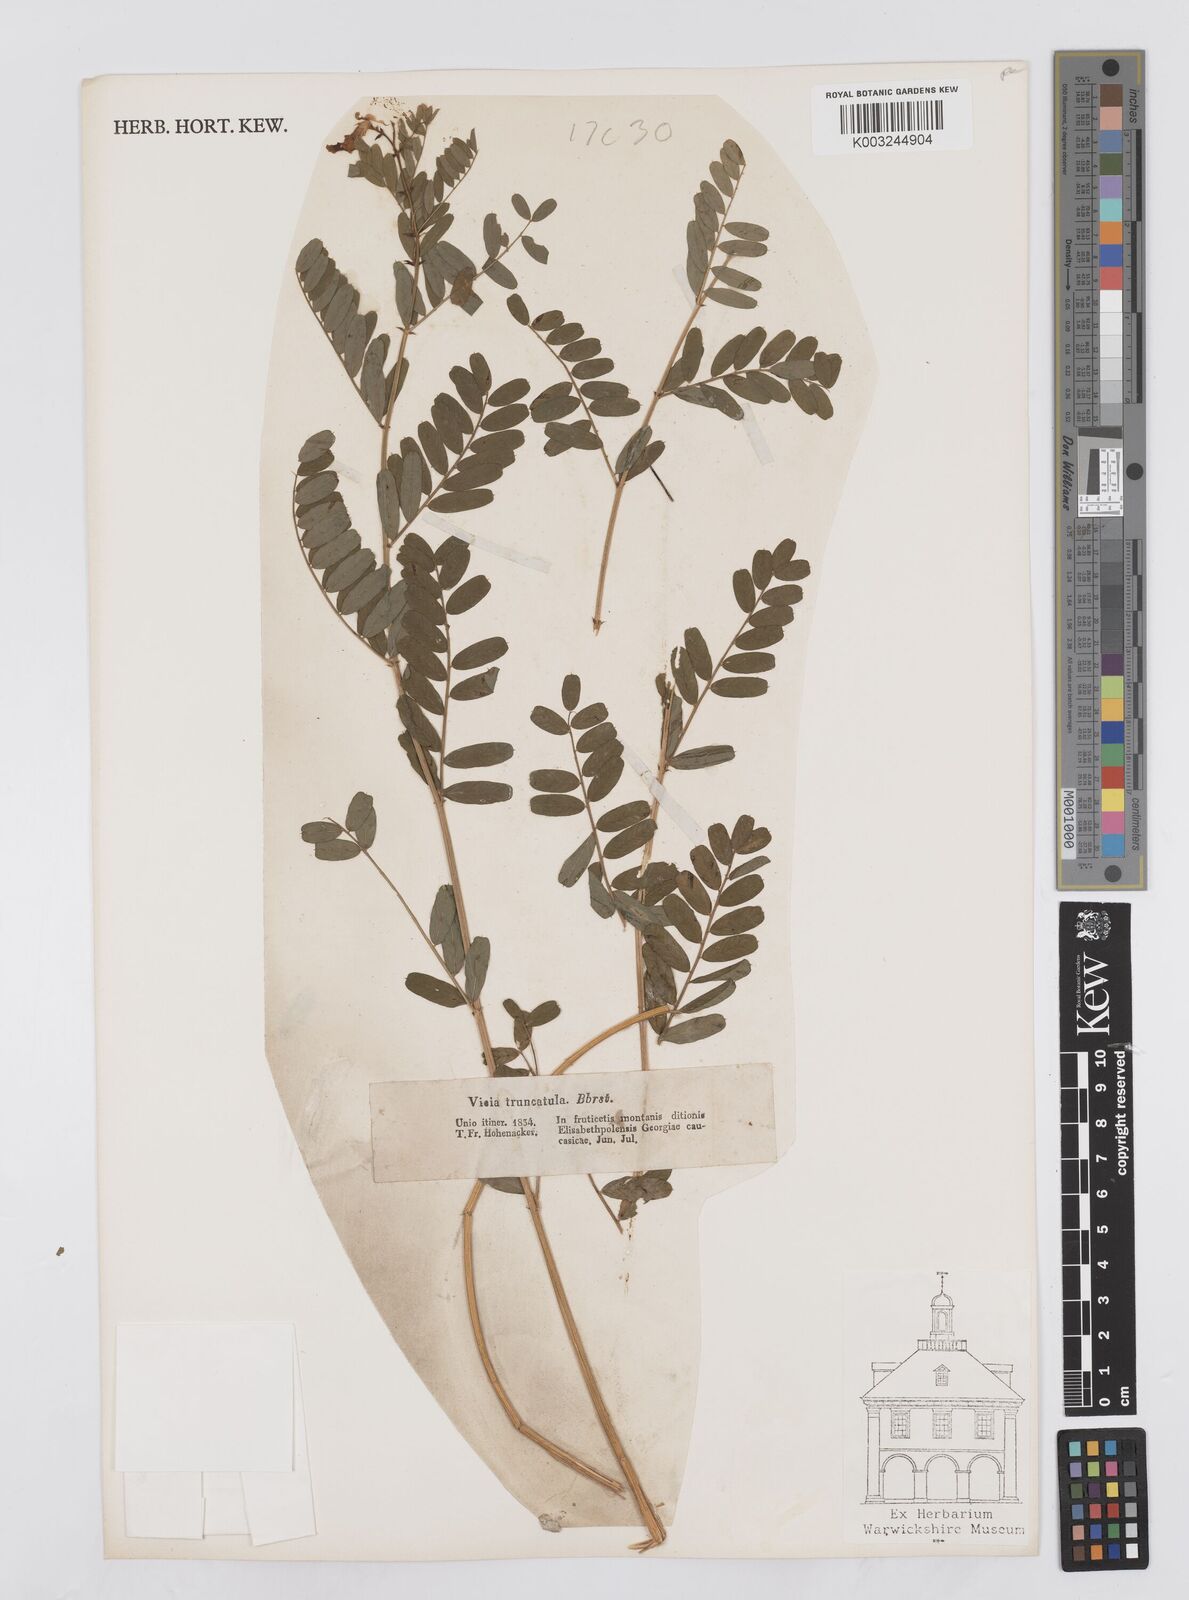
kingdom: Plantae
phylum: Tracheophyta
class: Magnoliopsida
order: Fabales
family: Fabaceae
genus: Vicia
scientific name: Vicia abbreviata
